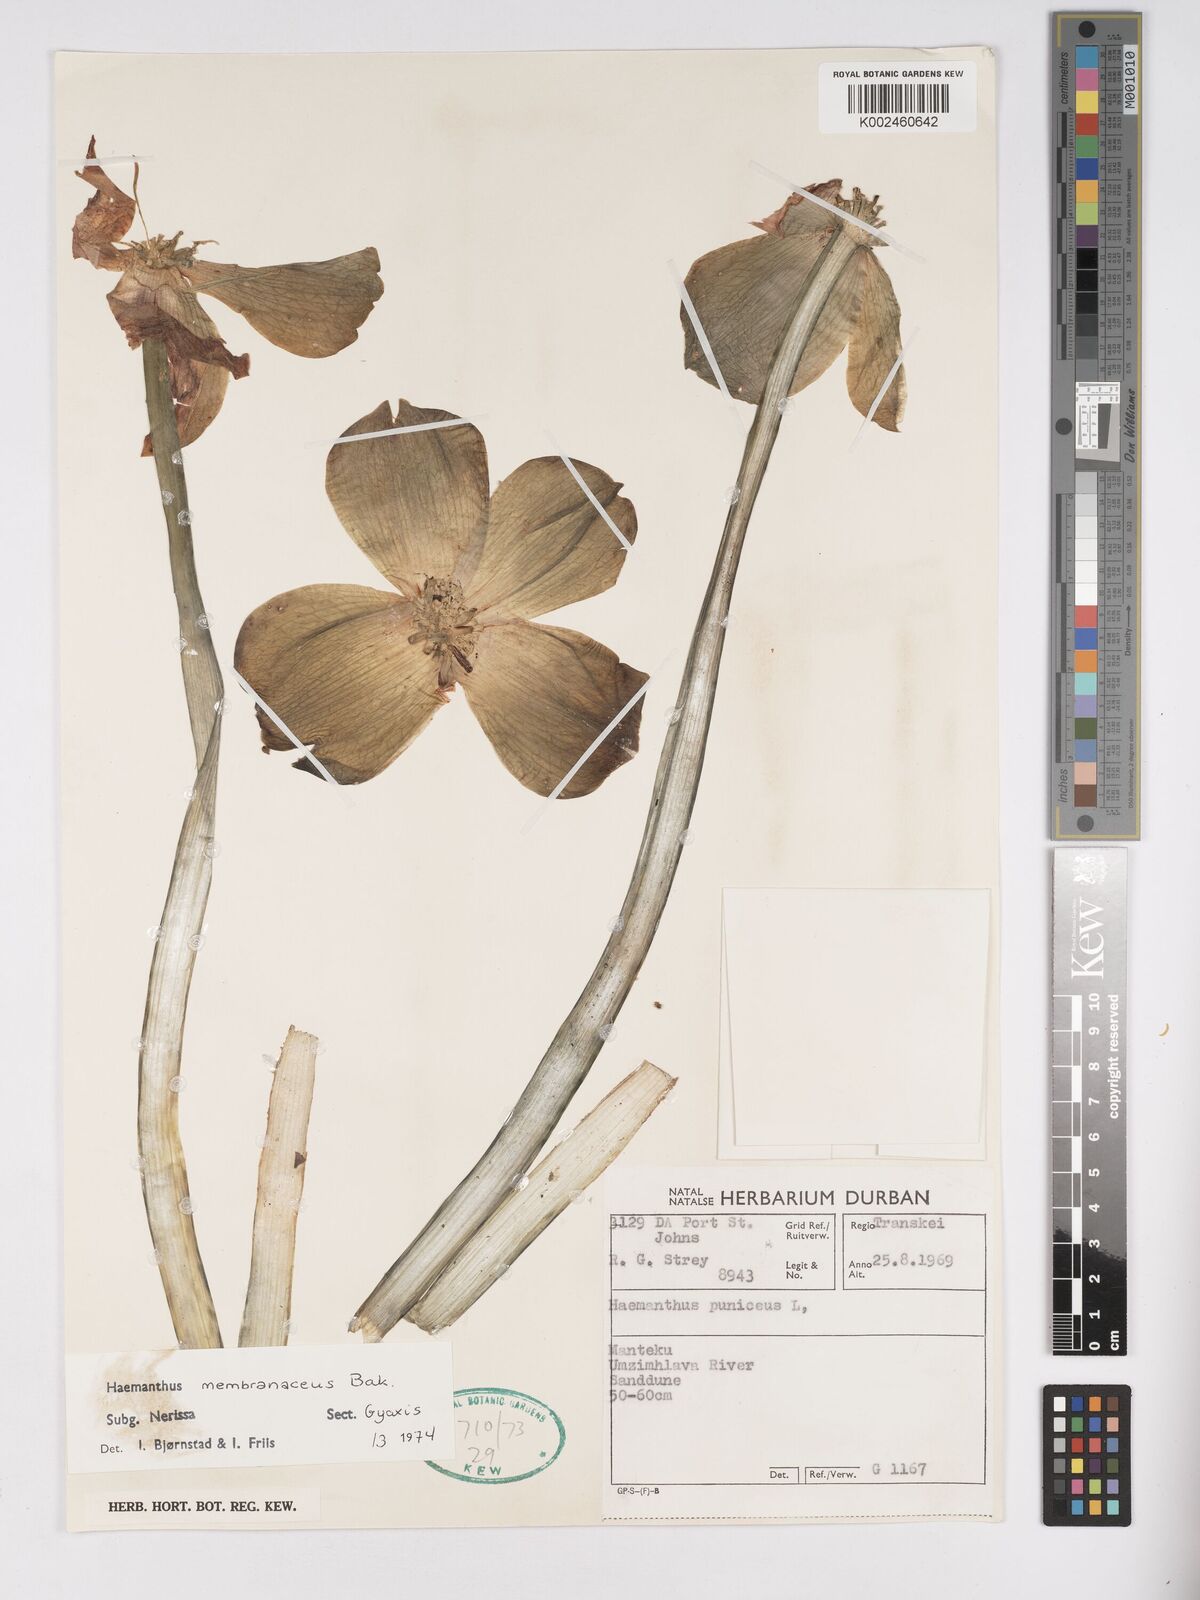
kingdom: Plantae
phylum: Tracheophyta
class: Liliopsida
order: Asparagales
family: Amaryllidaceae
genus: Scadoxus
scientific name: Scadoxus membranaceus
